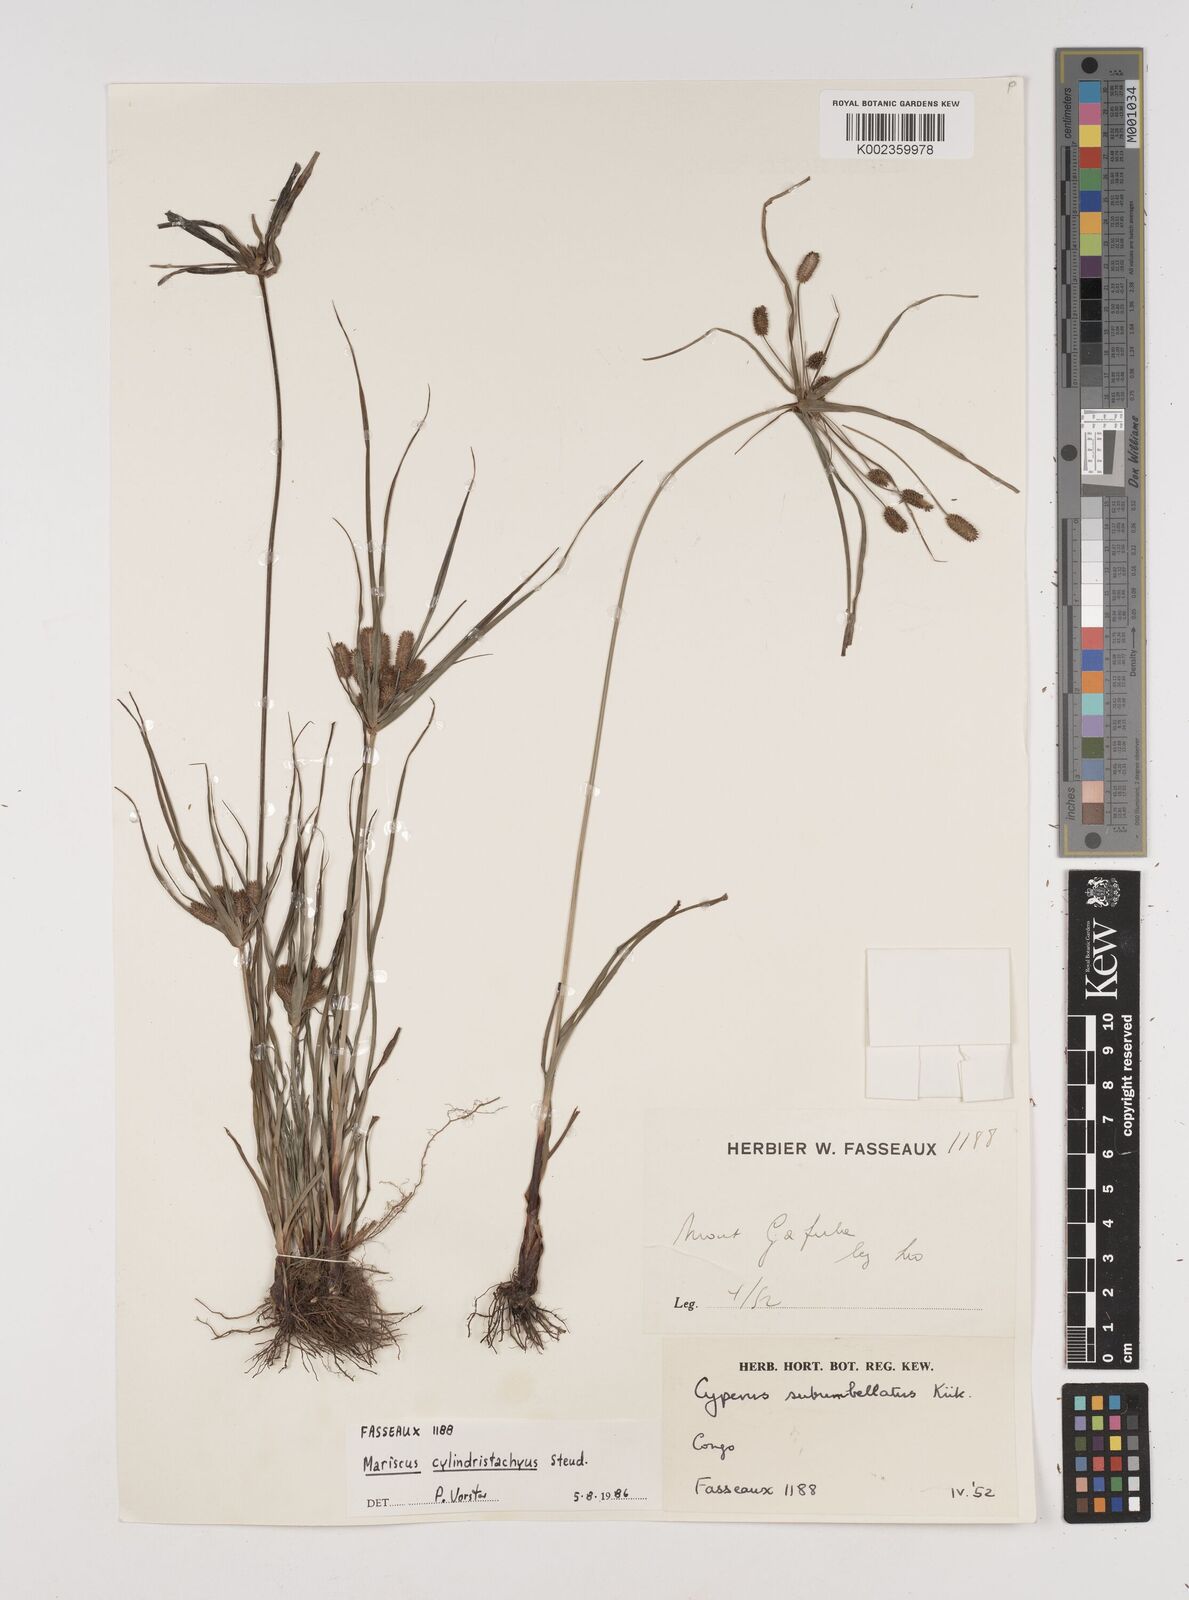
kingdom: Plantae
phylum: Tracheophyta
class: Liliopsida
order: Poales
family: Cyperaceae
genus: Cyperus
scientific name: Cyperus cyperoides
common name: Pacific island flat sedge
